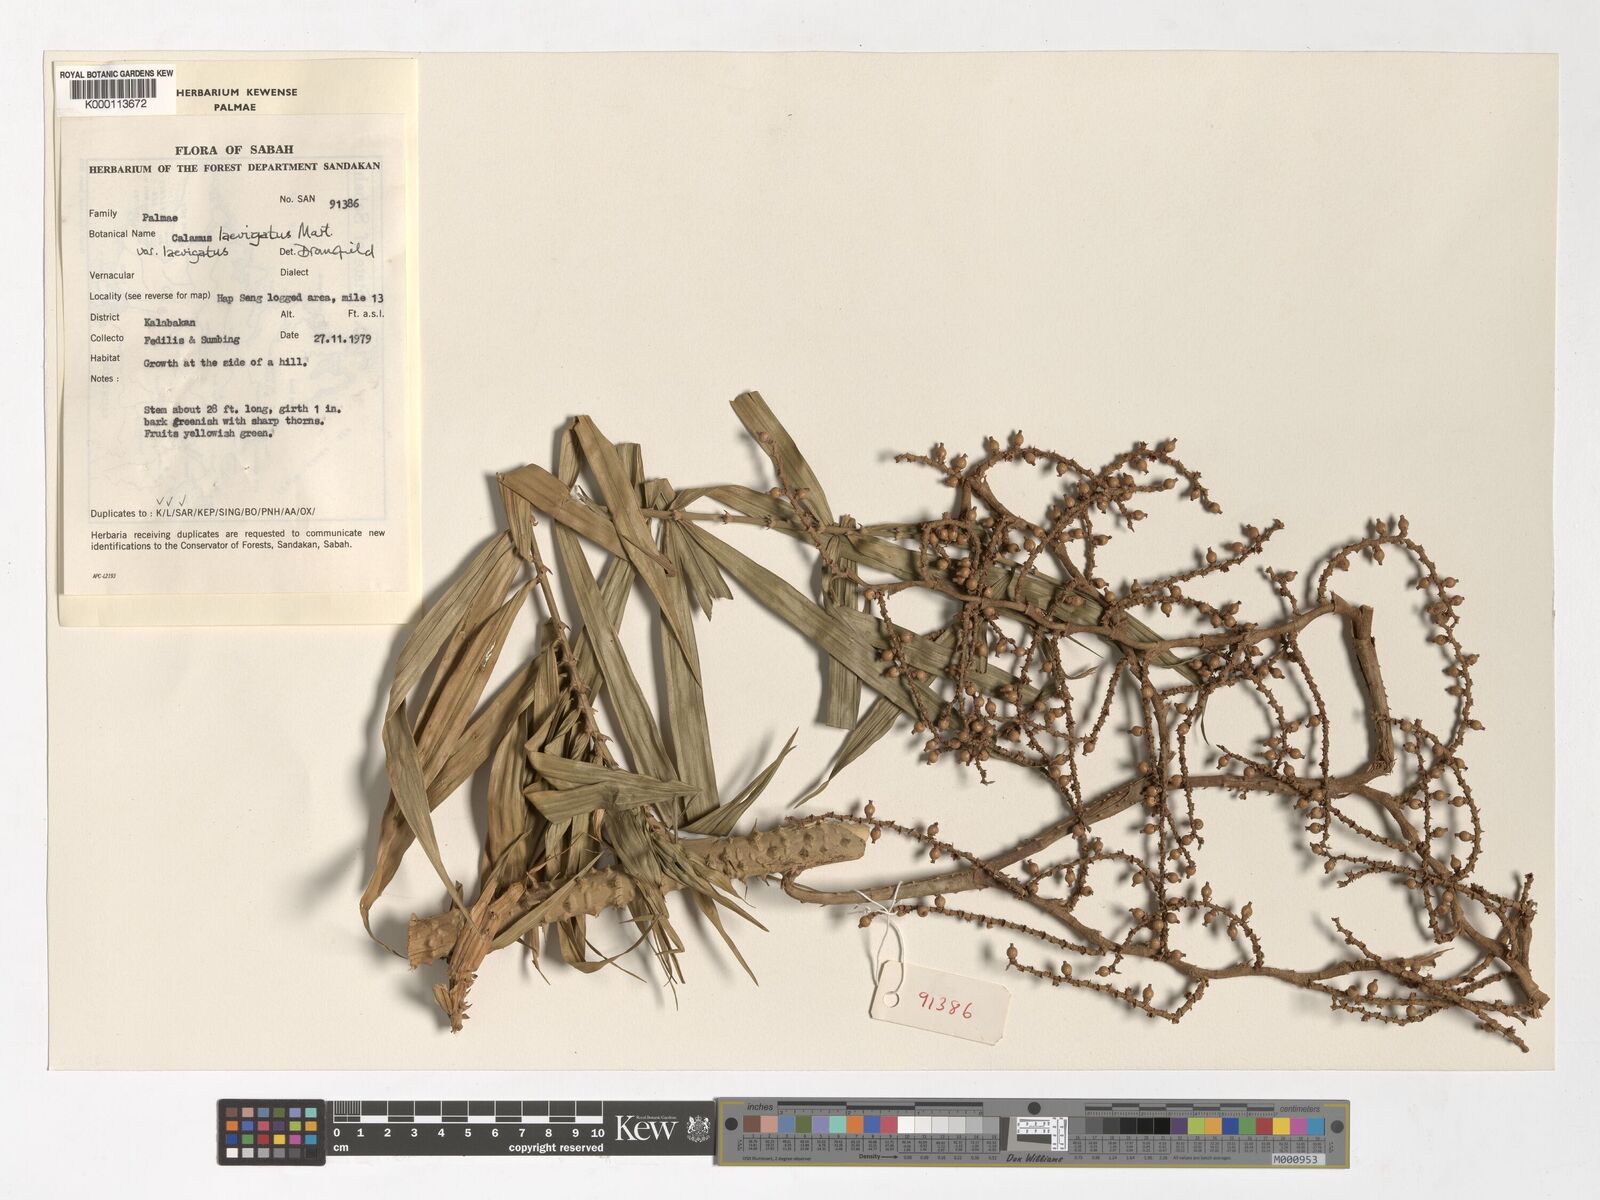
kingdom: Plantae
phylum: Tracheophyta
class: Liliopsida
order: Arecales
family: Arecaceae
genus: Calamus
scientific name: Calamus
